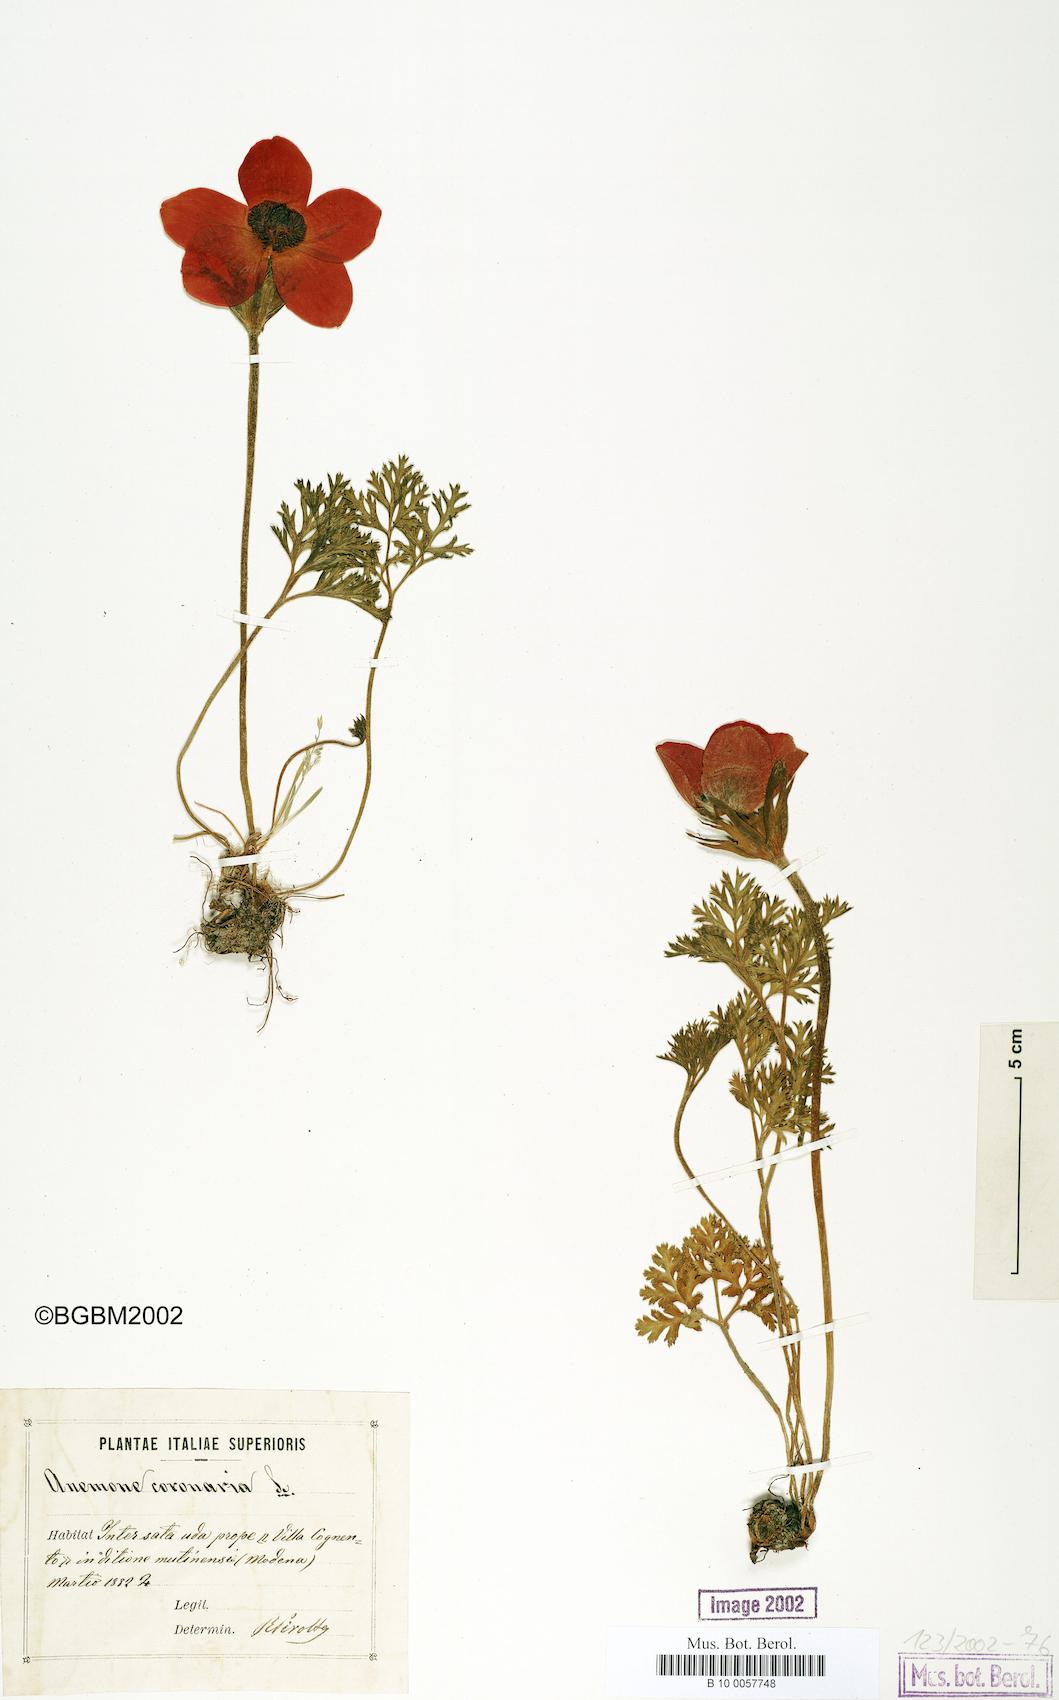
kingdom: Plantae
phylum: Tracheophyta
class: Magnoliopsida
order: Ranunculales
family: Ranunculaceae
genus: Anemone
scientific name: Anemone coronaria
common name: Poppy anemone
